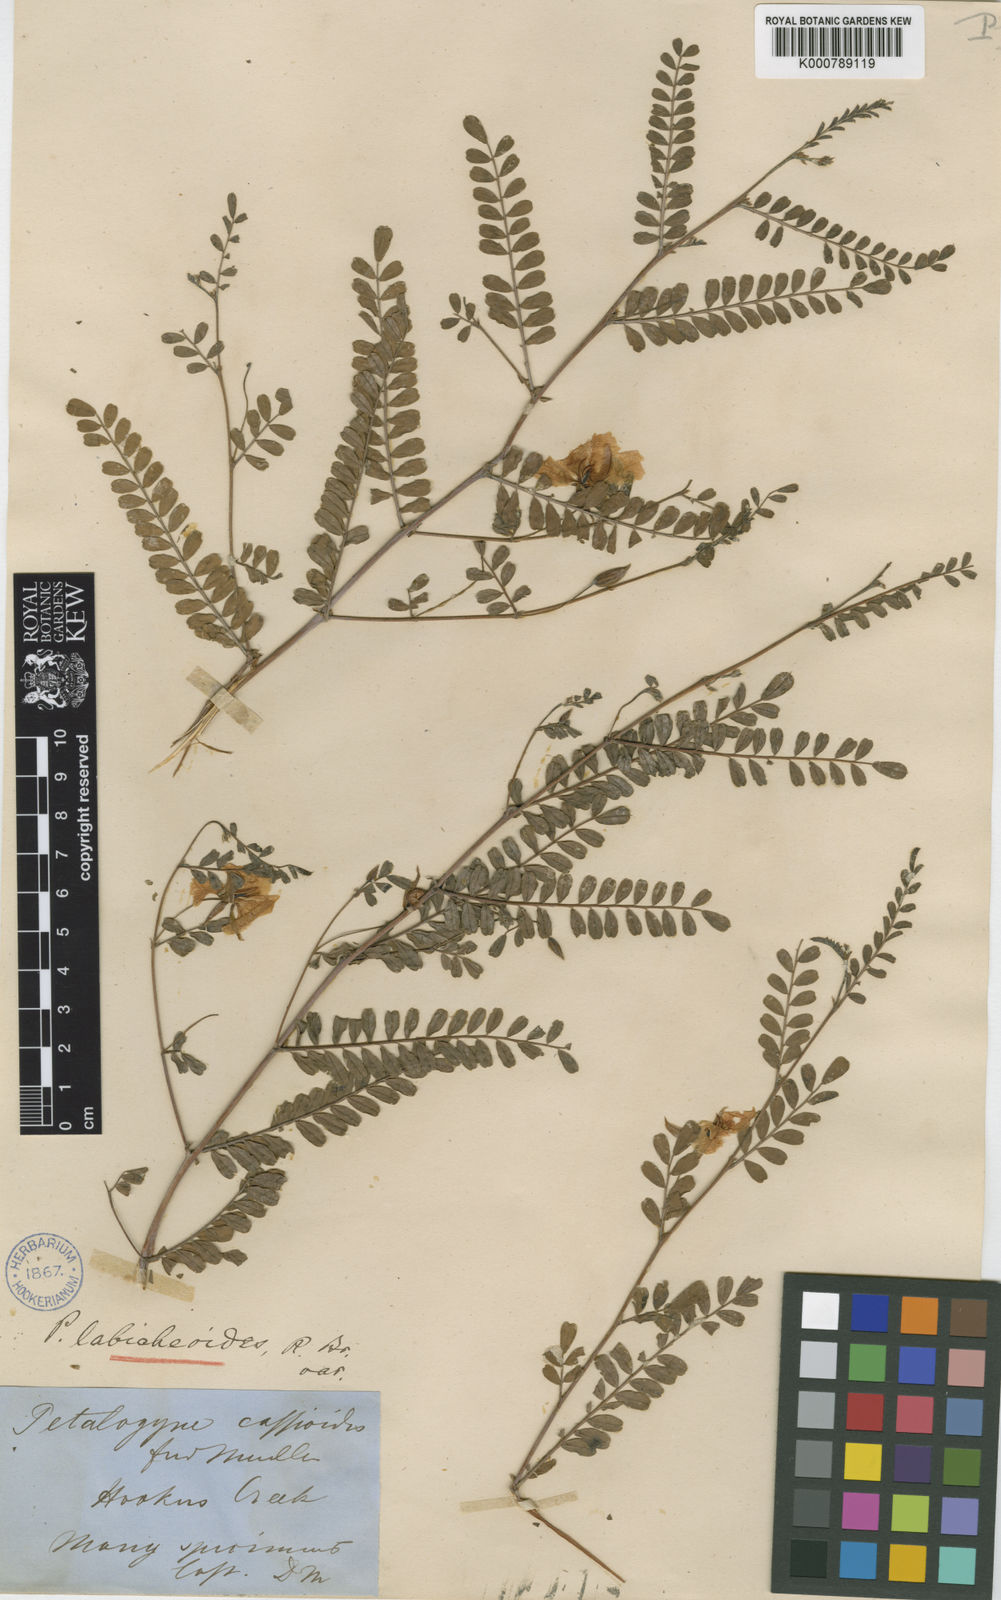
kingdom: Plantae
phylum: Tracheophyta
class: Magnoliopsida
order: Fabales
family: Fabaceae
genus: Petalostylis
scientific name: Petalostylis cassioides
